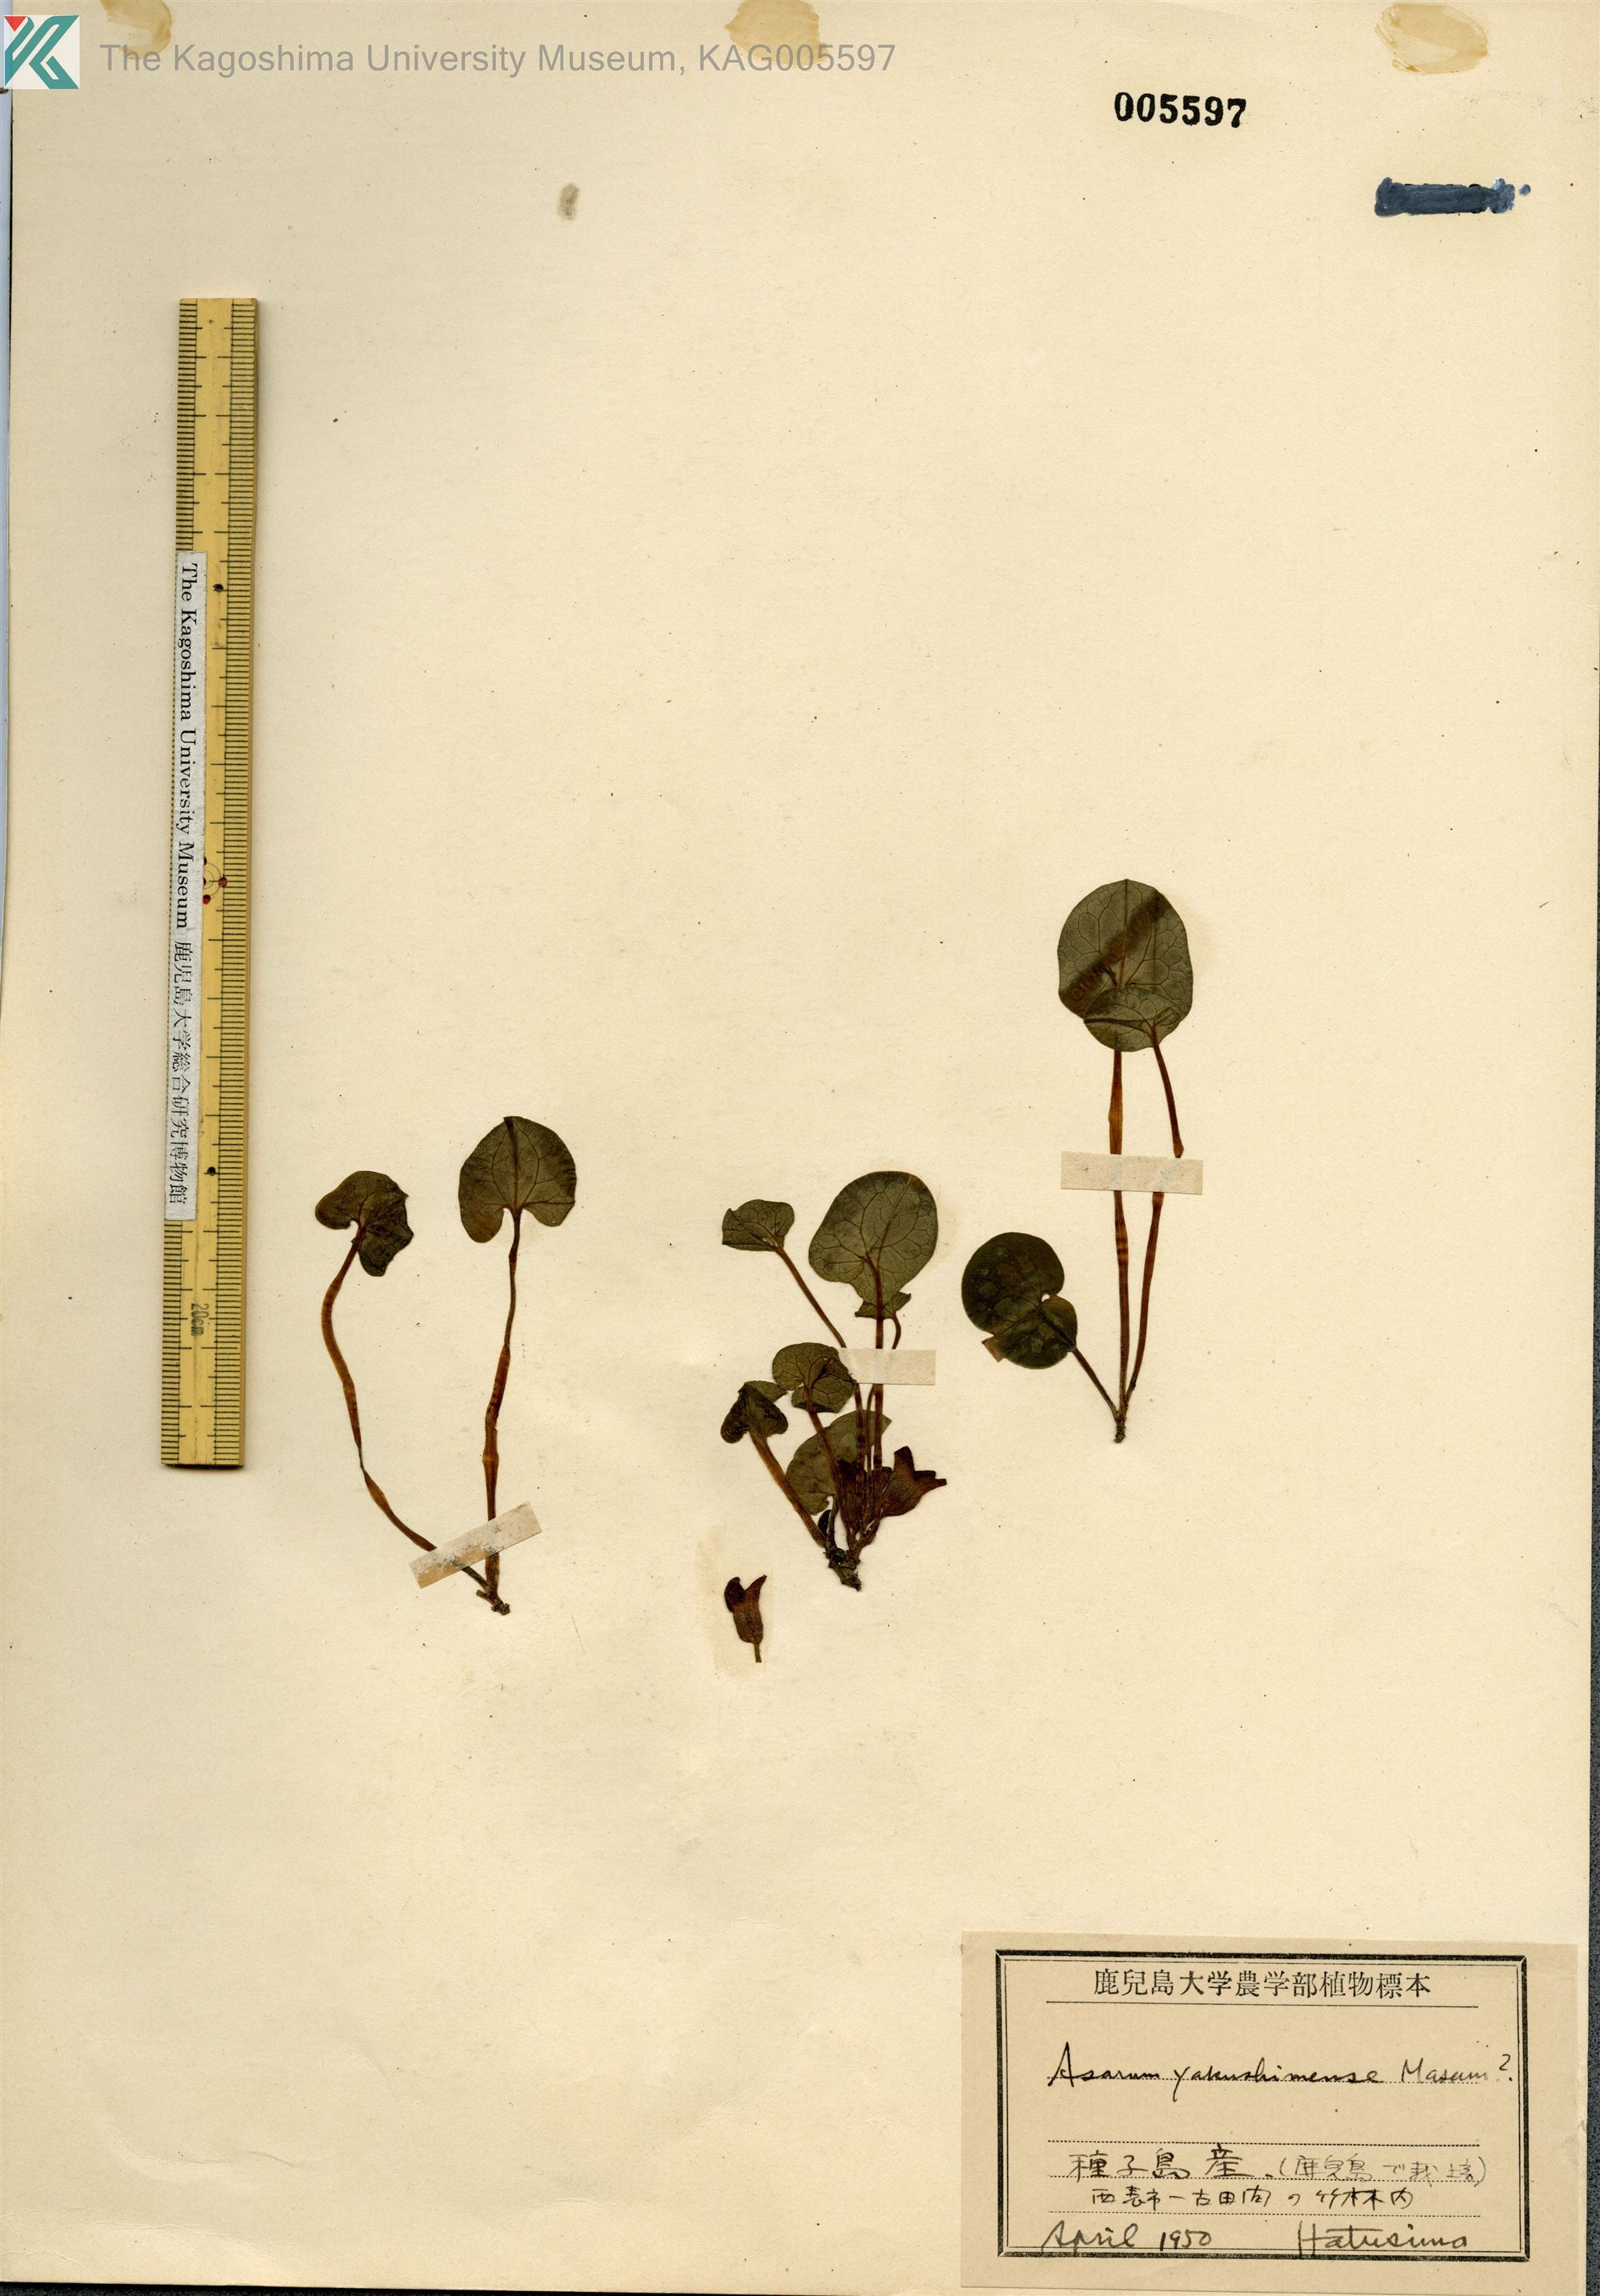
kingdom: Plantae
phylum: Tracheophyta
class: Magnoliopsida
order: Piperales
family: Aristolochiaceae
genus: Asarum
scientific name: Asarum kumageanum
